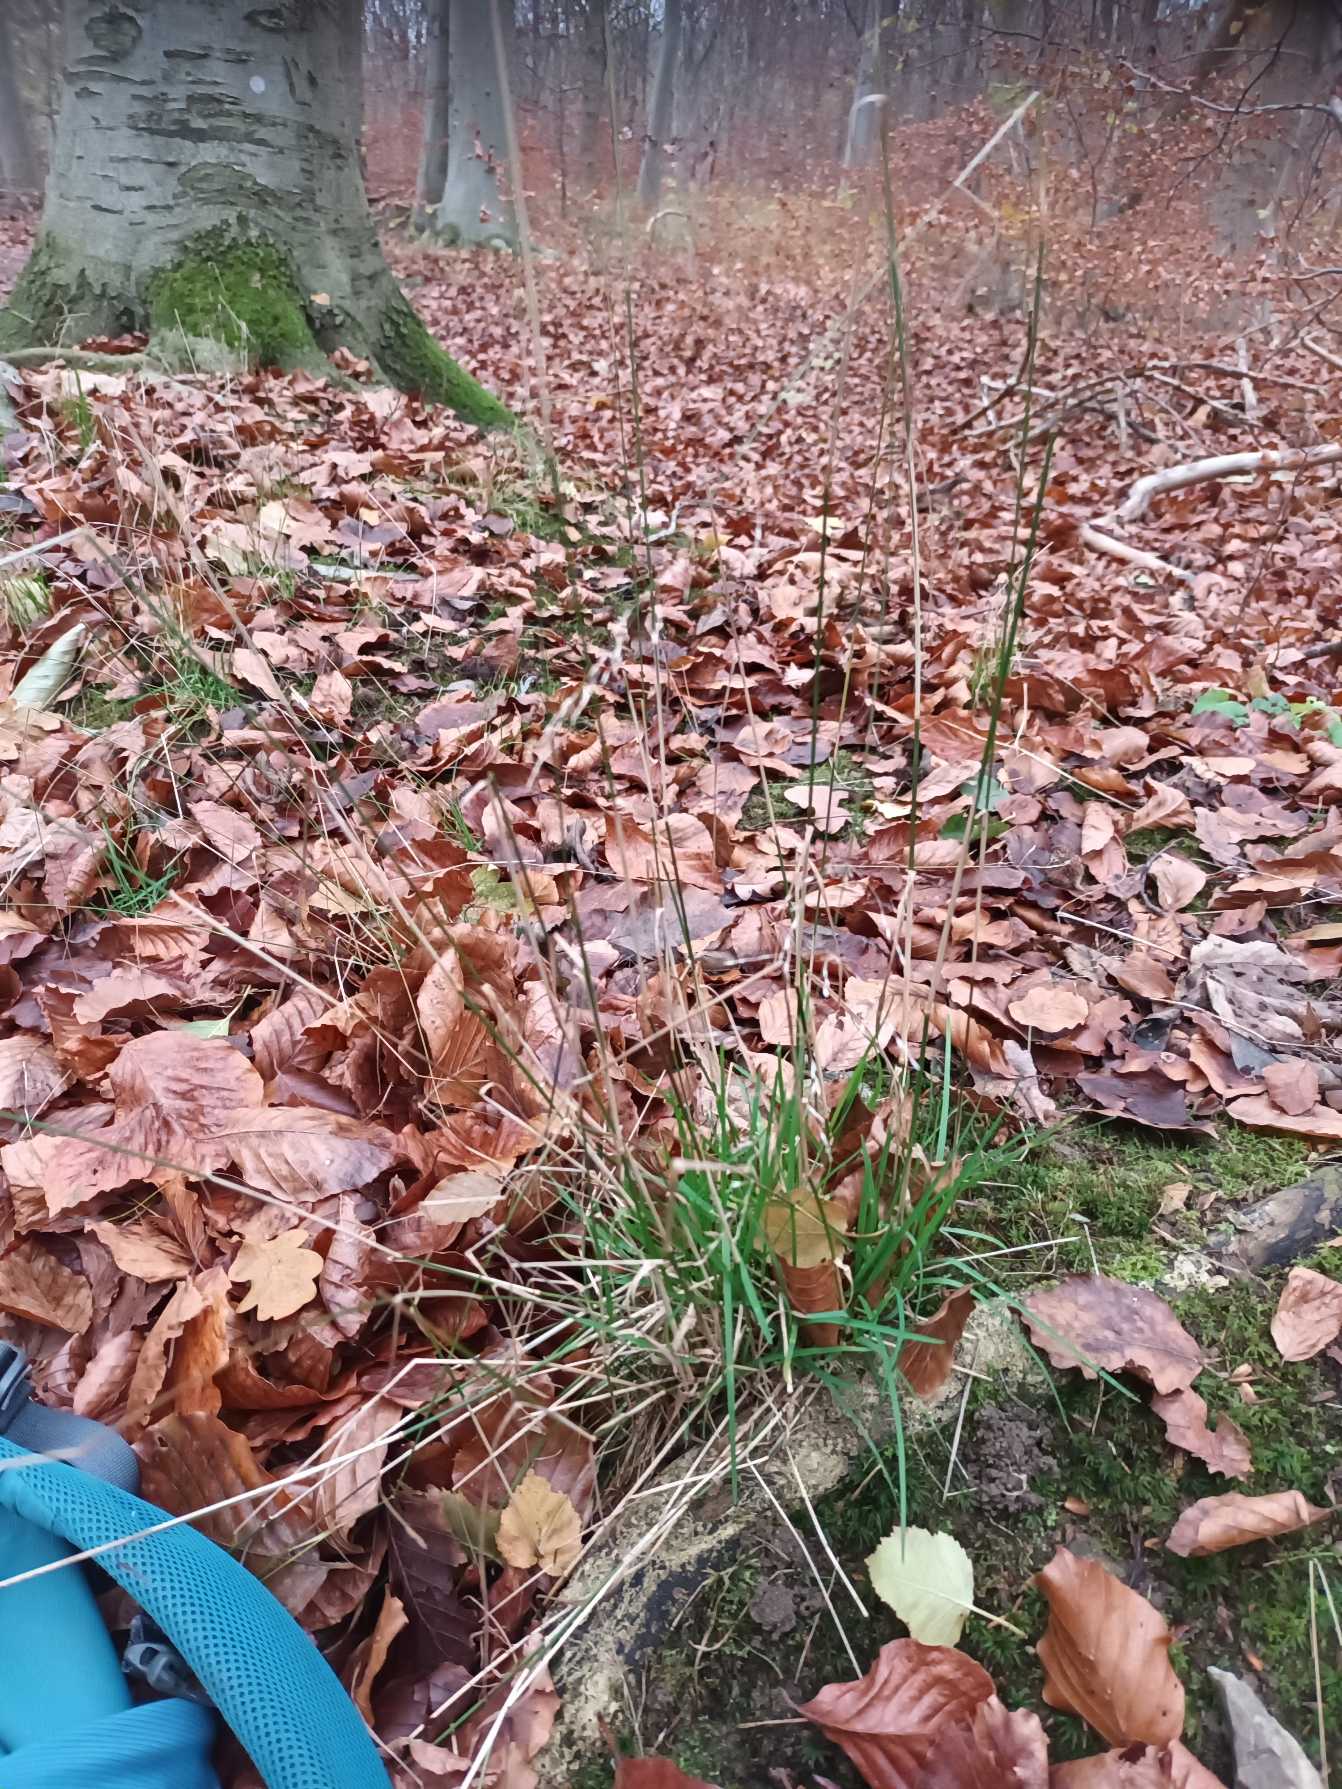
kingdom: Plantae
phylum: Tracheophyta
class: Liliopsida
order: Poales
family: Poaceae
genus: Poa
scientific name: Poa nemoralis
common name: Lund-rapgræs
